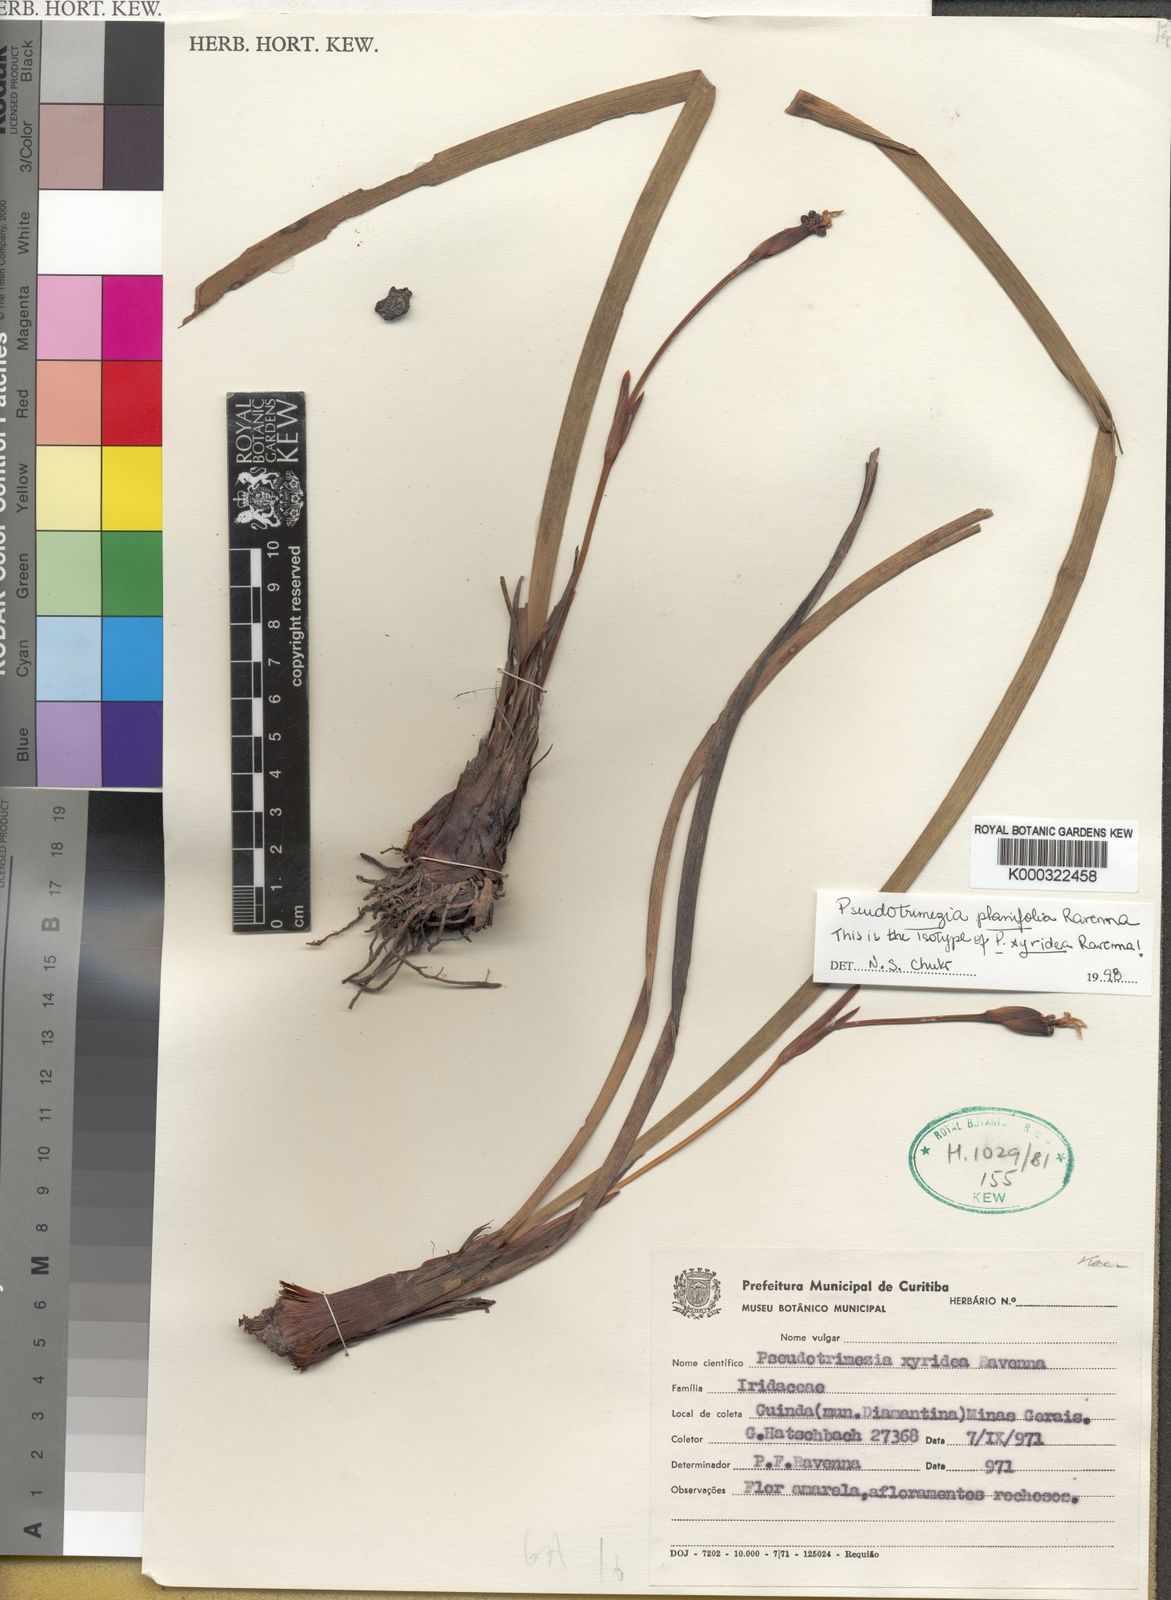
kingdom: Plantae
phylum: Tracheophyta
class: Liliopsida
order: Asparagales
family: Iridaceae
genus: Trimezia
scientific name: Trimezia xyridea
